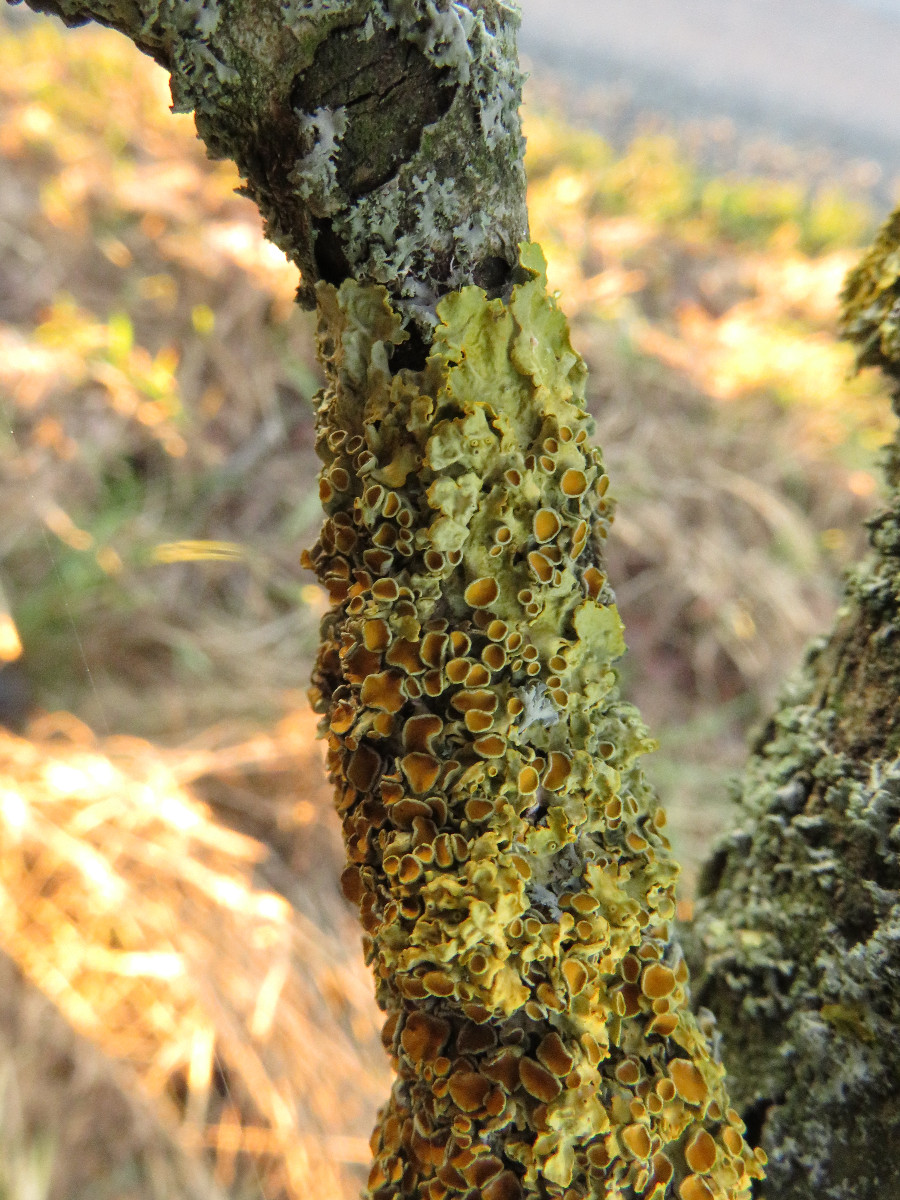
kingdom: Fungi
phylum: Ascomycota
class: Lecanoromycetes
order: Teloschistales
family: Teloschistaceae
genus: Xanthoria
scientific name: Xanthoria parietina
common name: almindelig væggelav
